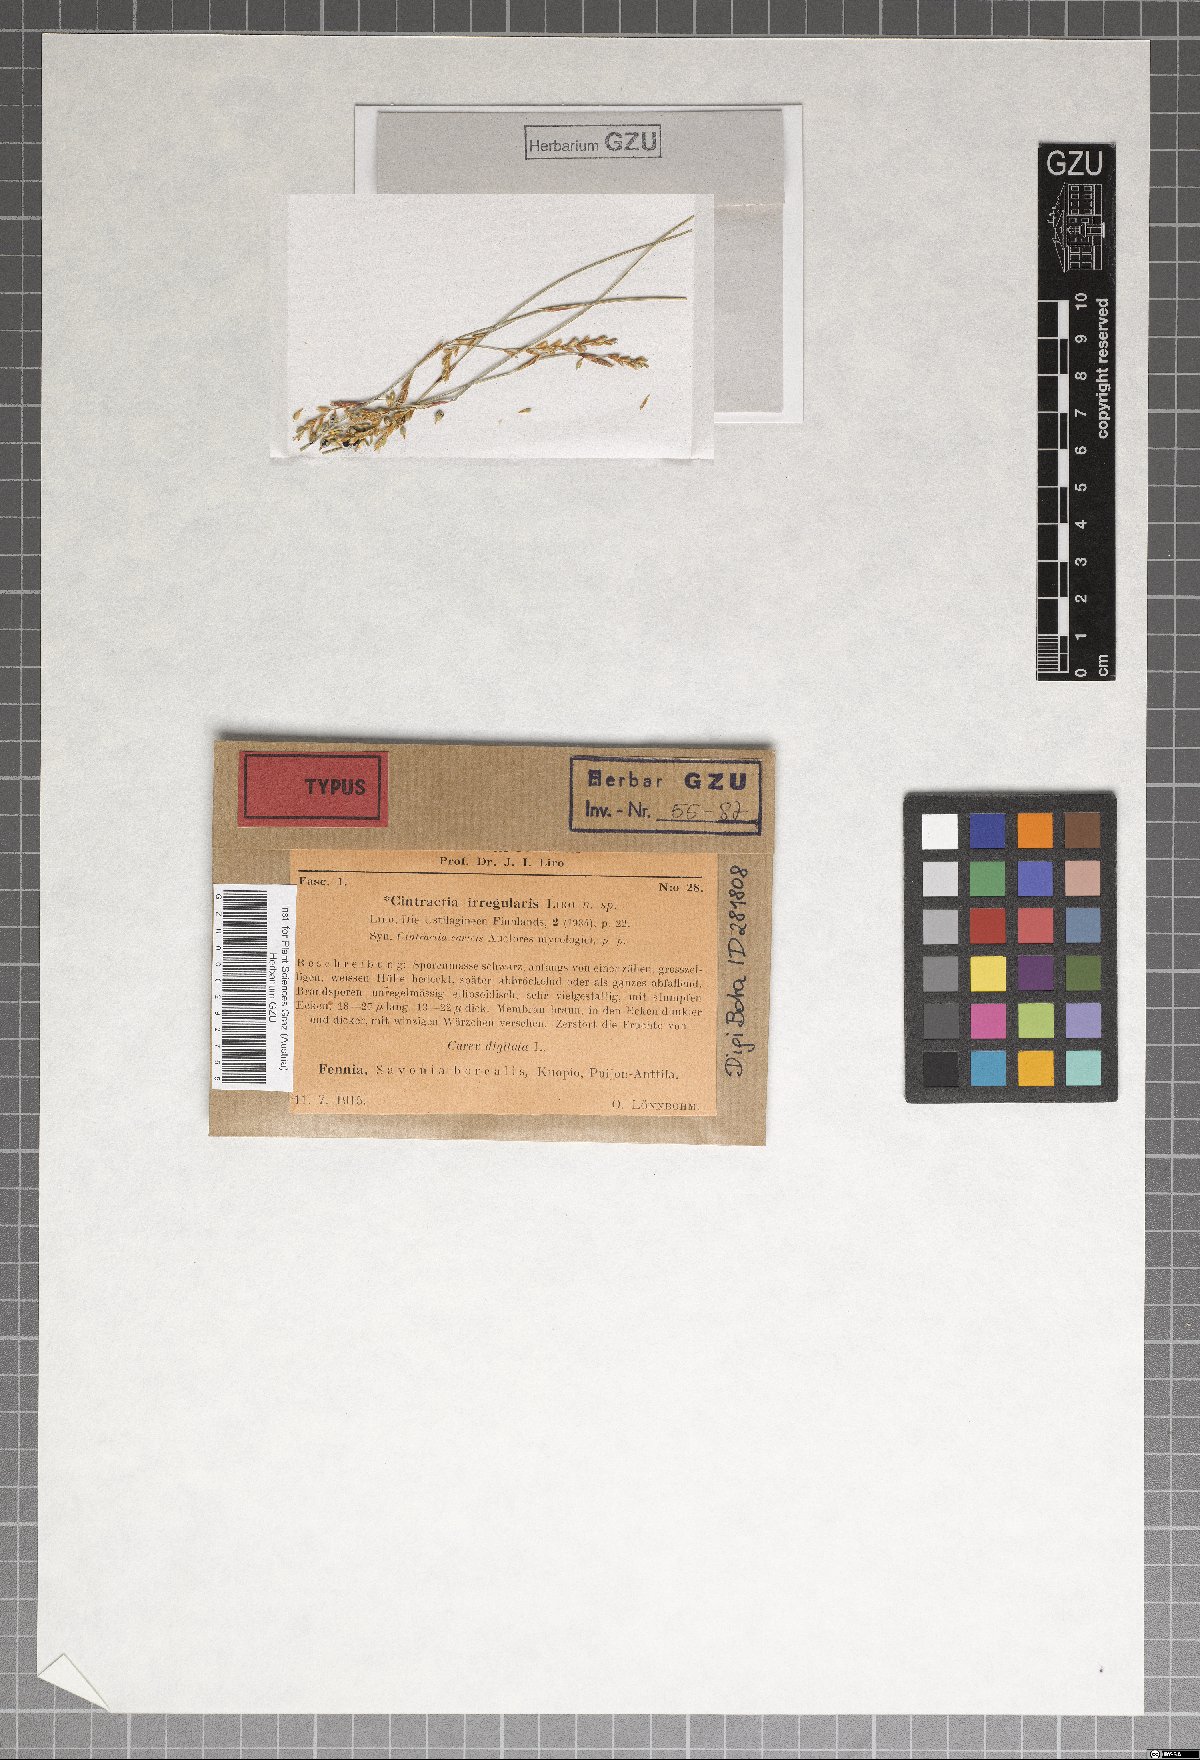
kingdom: Fungi
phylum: Basidiomycota
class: Ustilaginomycetes
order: Ustilaginales
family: Anthracoideaceae
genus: Anthracoidea
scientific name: Anthracoidea irregularis
